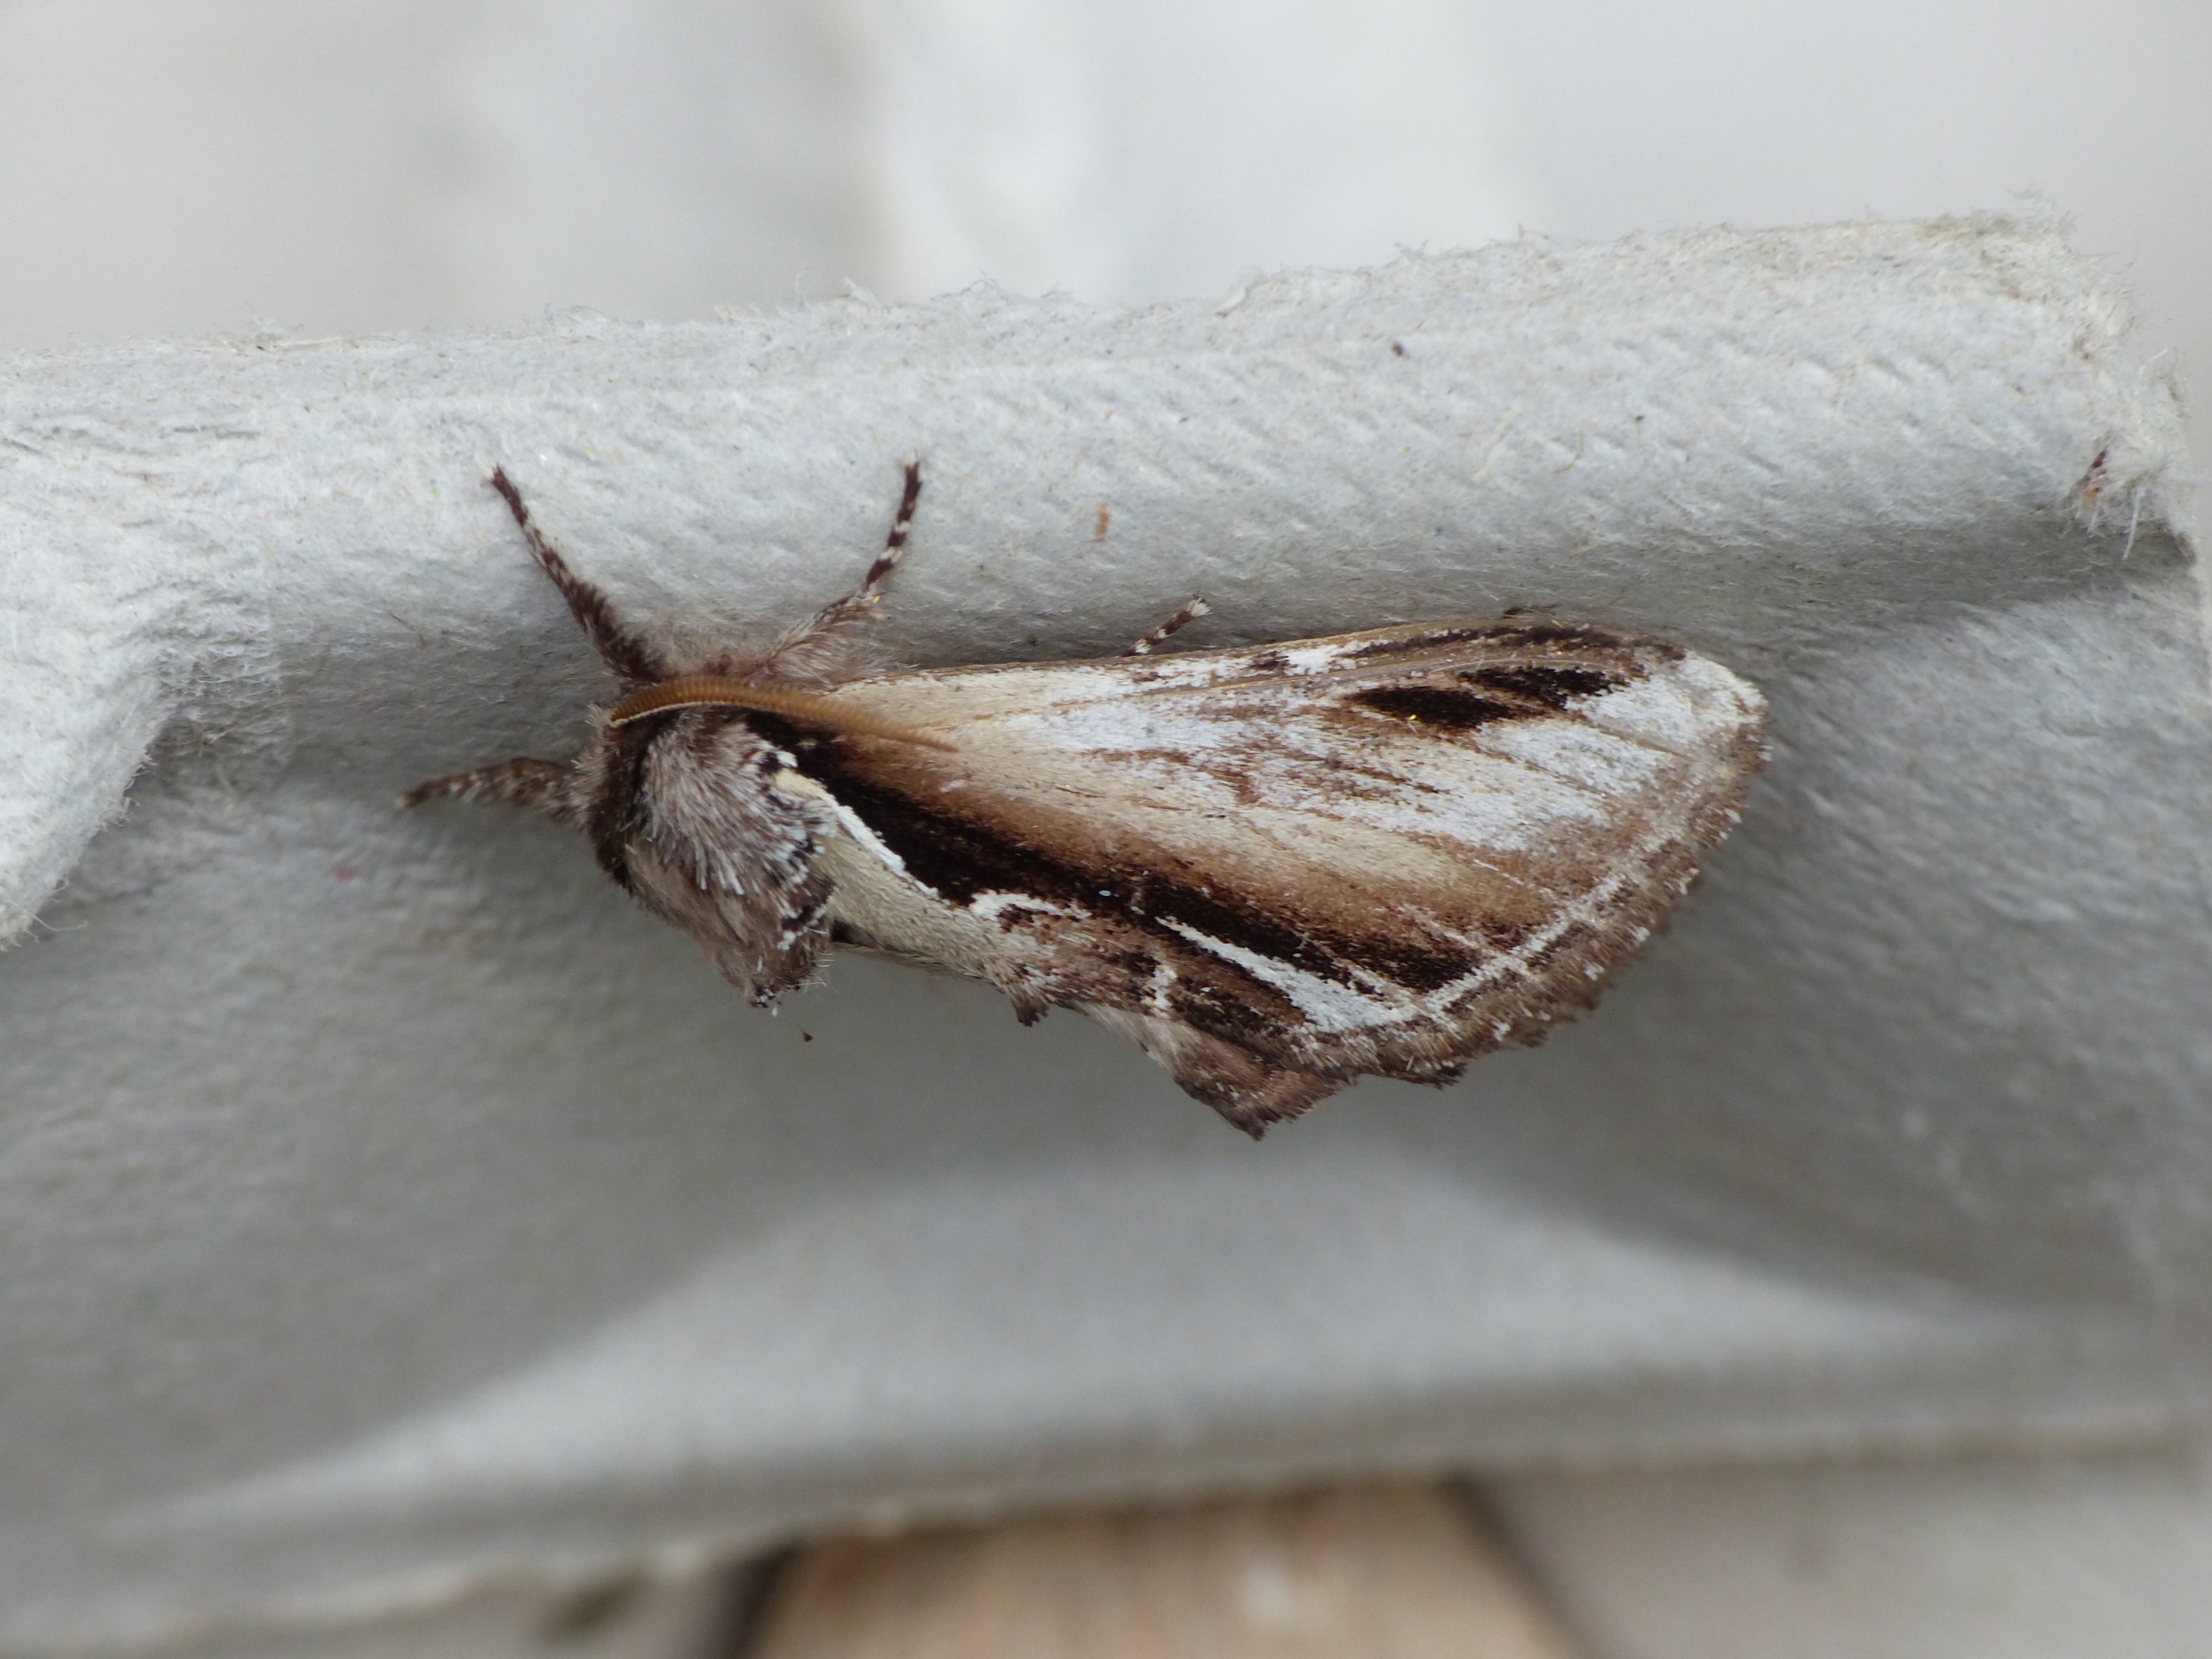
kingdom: Animalia
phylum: Arthropoda
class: Insecta
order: Lepidoptera
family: Notodontidae
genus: Pheosia
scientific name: Pheosia gnoma
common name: Birkeporcelænsspinder
